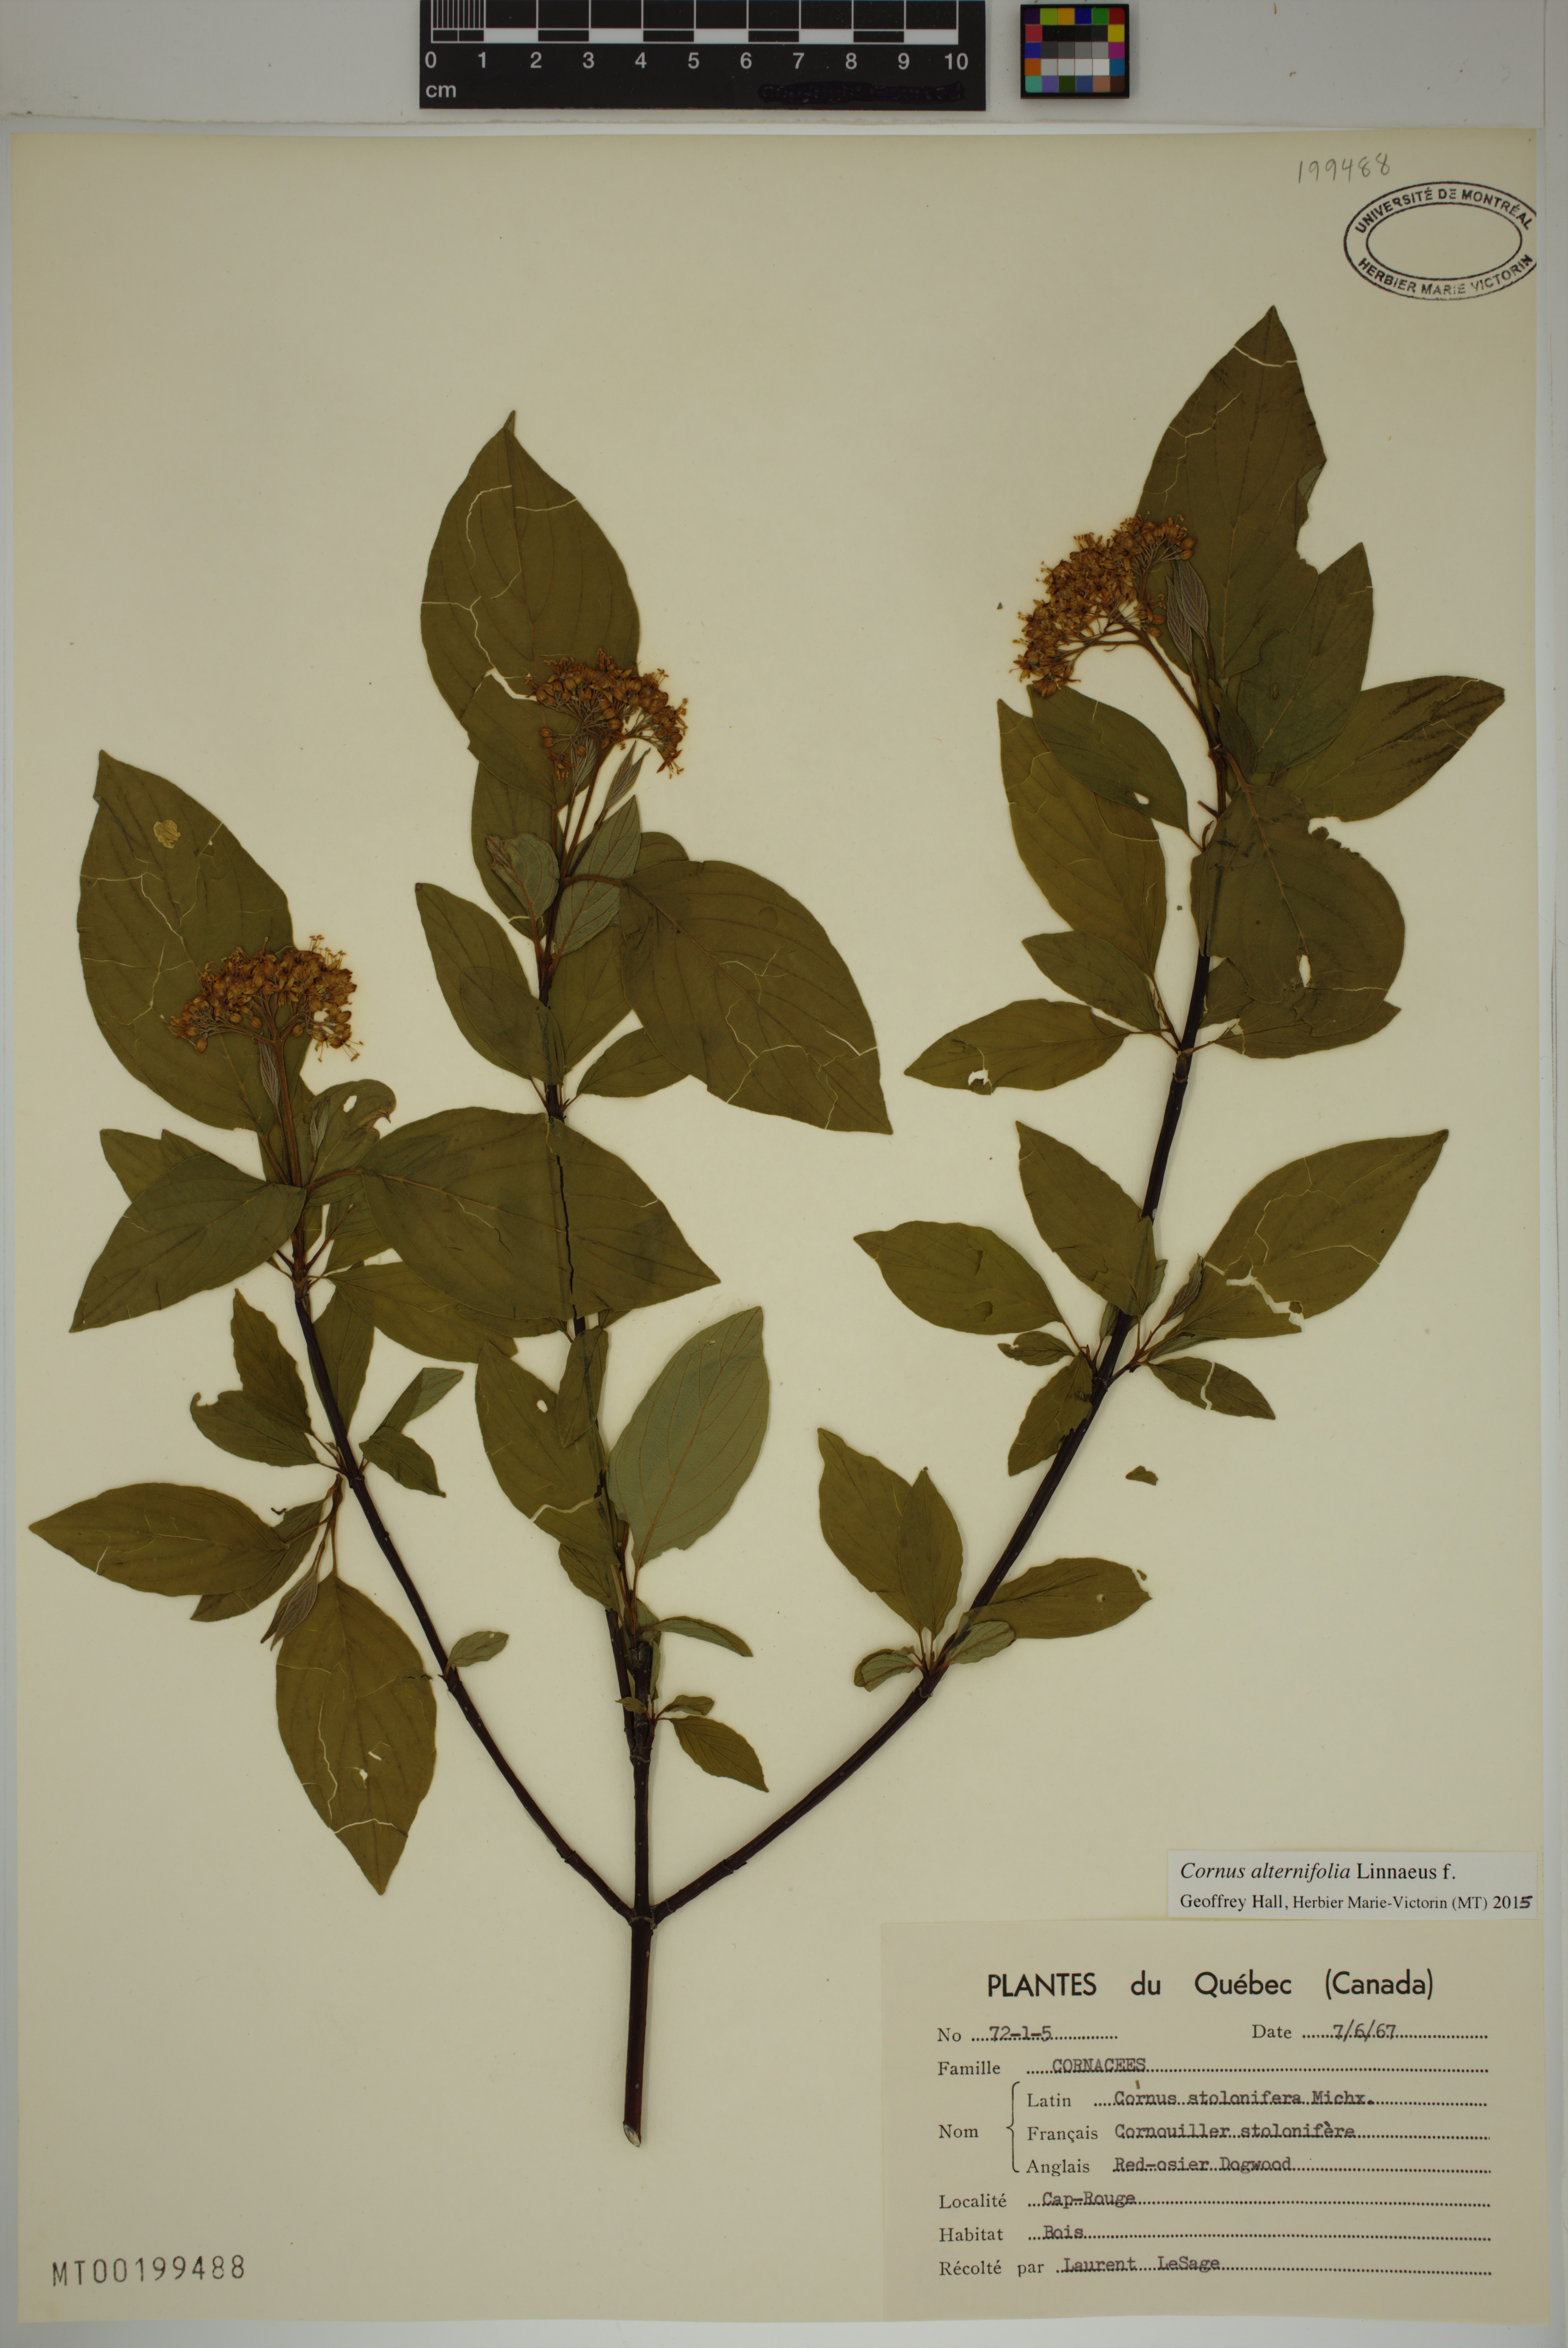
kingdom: Plantae
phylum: Tracheophyta
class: Magnoliopsida
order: Cornales
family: Cornaceae
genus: Cornus
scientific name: Cornus alternifolia
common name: Pagoda dogwood
